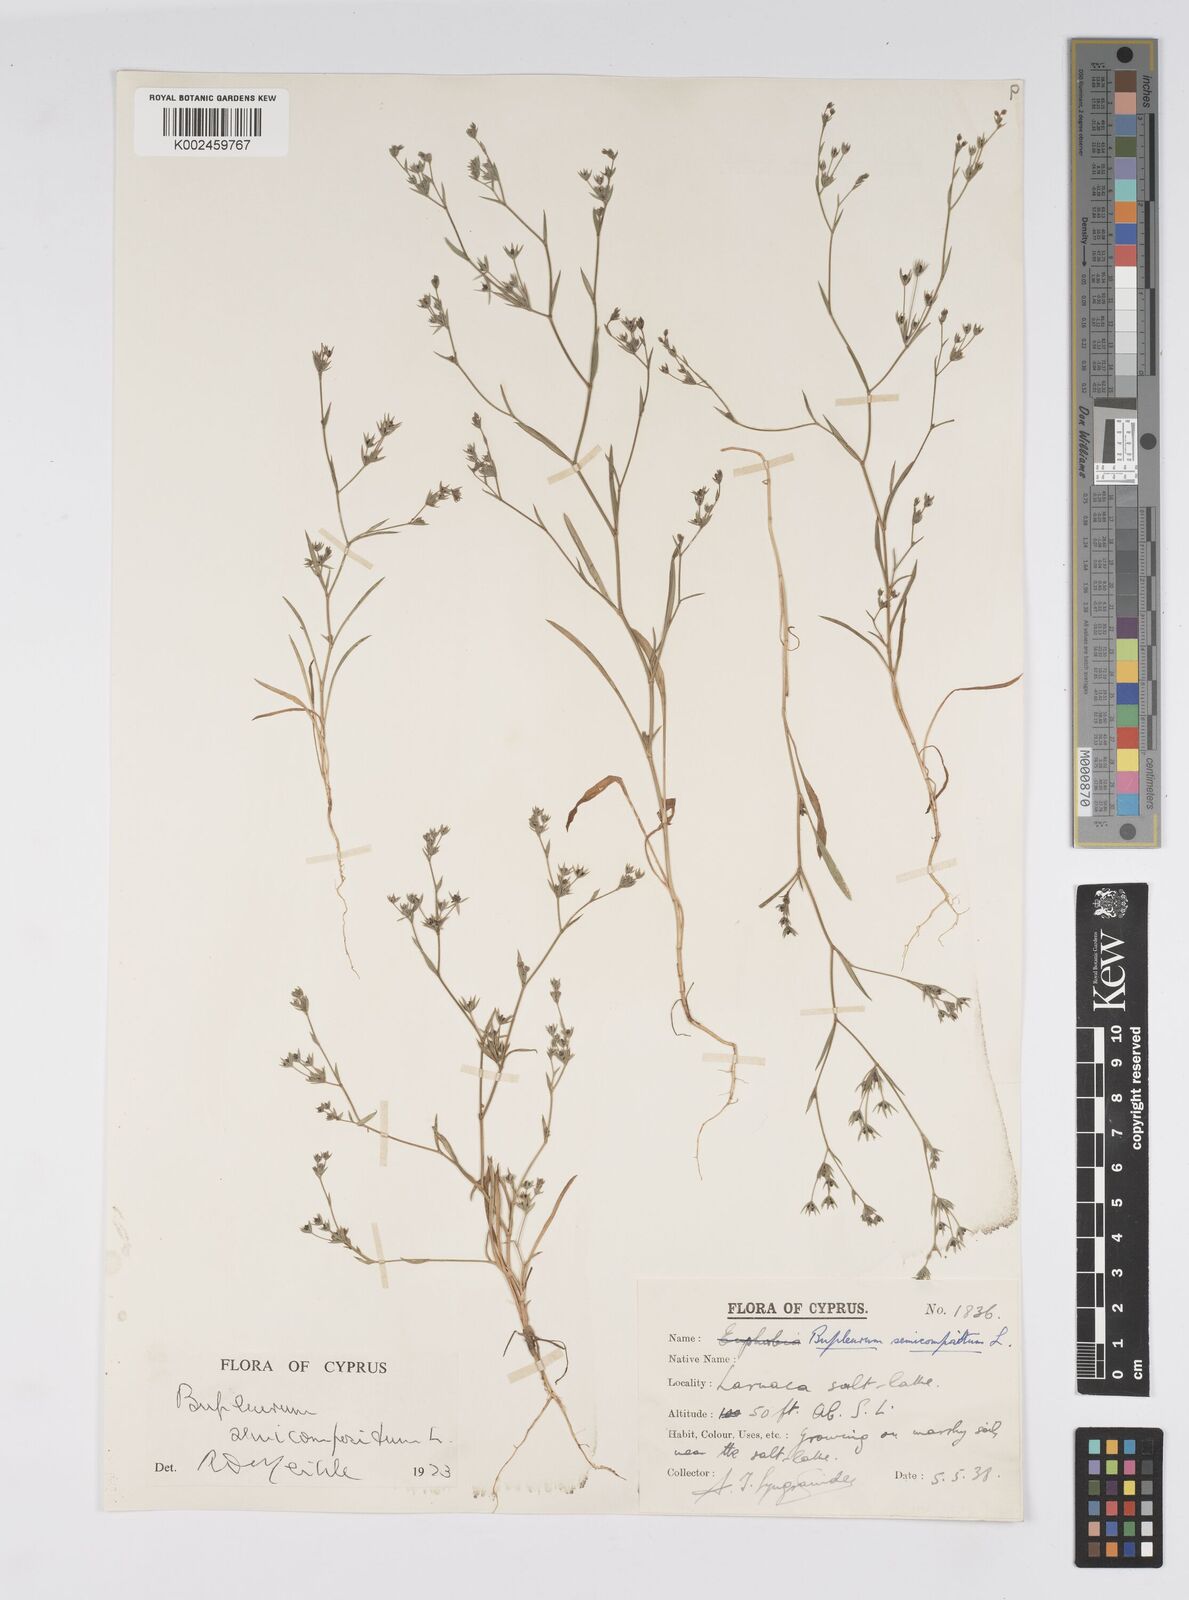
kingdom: Plantae
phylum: Tracheophyta
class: Magnoliopsida
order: Apiales
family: Apiaceae
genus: Bupleurum
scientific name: Bupleurum semicompositum
